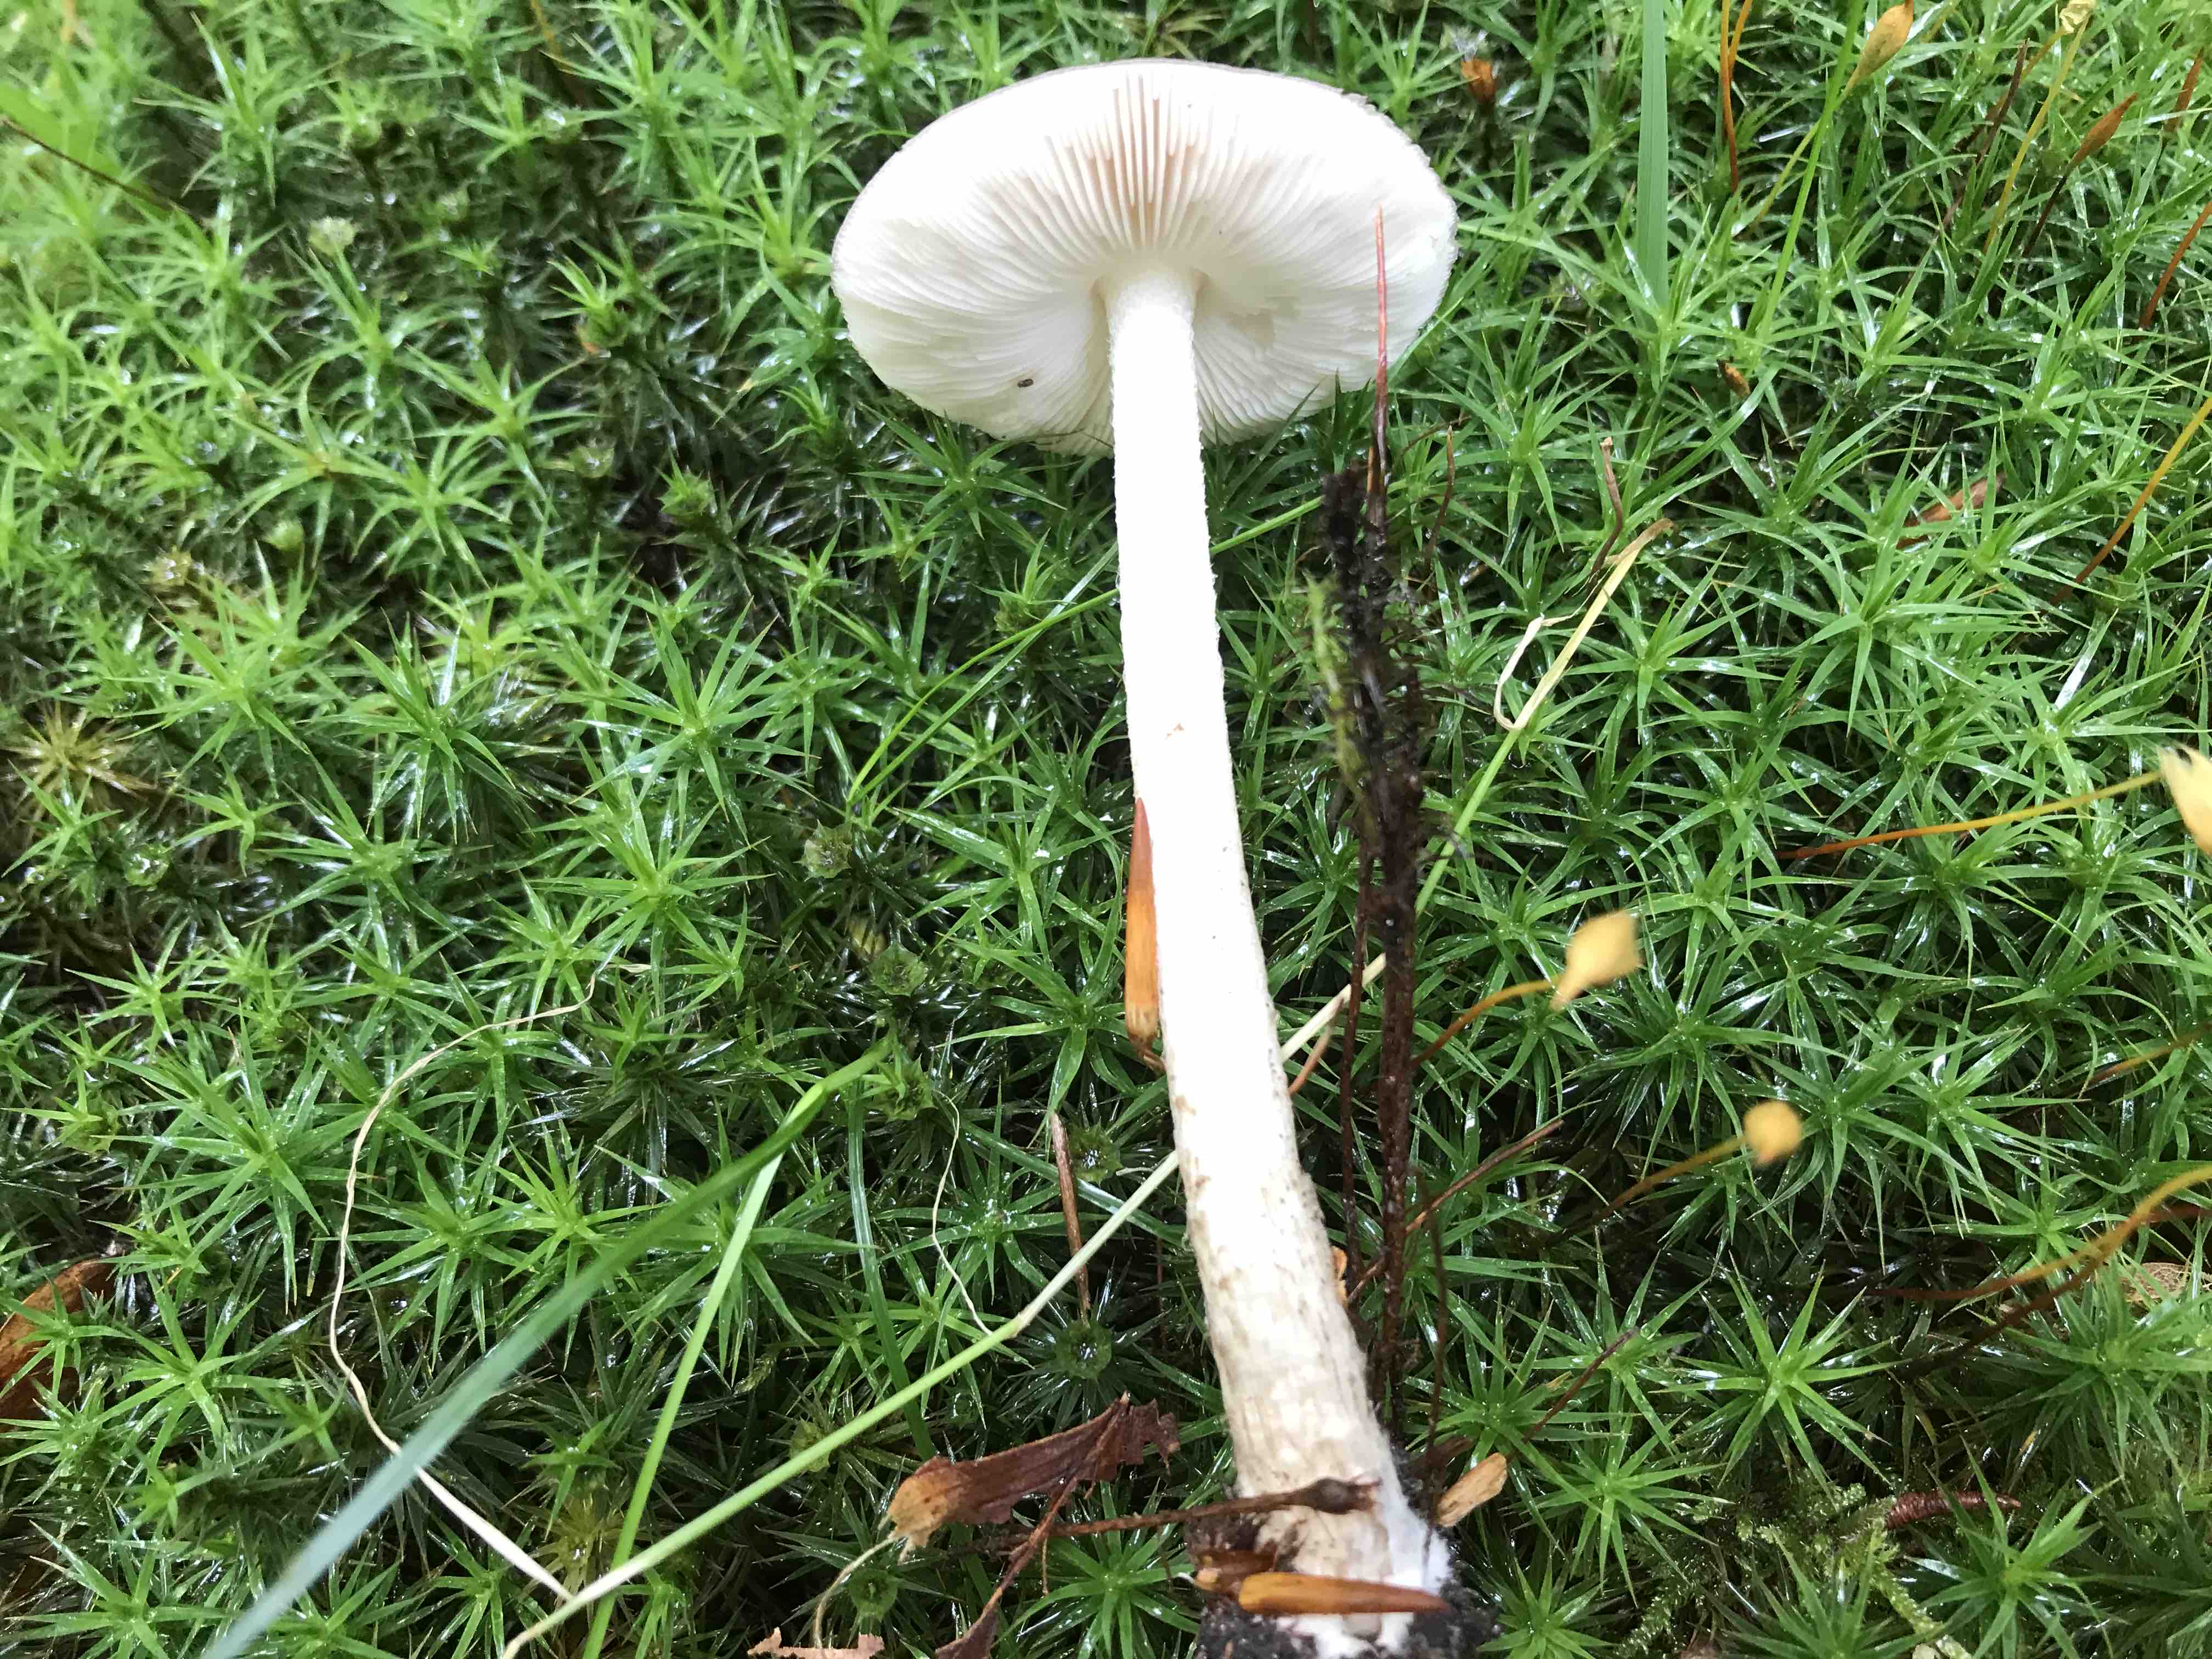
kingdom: Fungi
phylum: Basidiomycota
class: Agaricomycetes
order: Agaricales
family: Pluteaceae
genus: Pluteus
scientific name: Pluteus cervinus
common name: sodfarvet skærmhat
